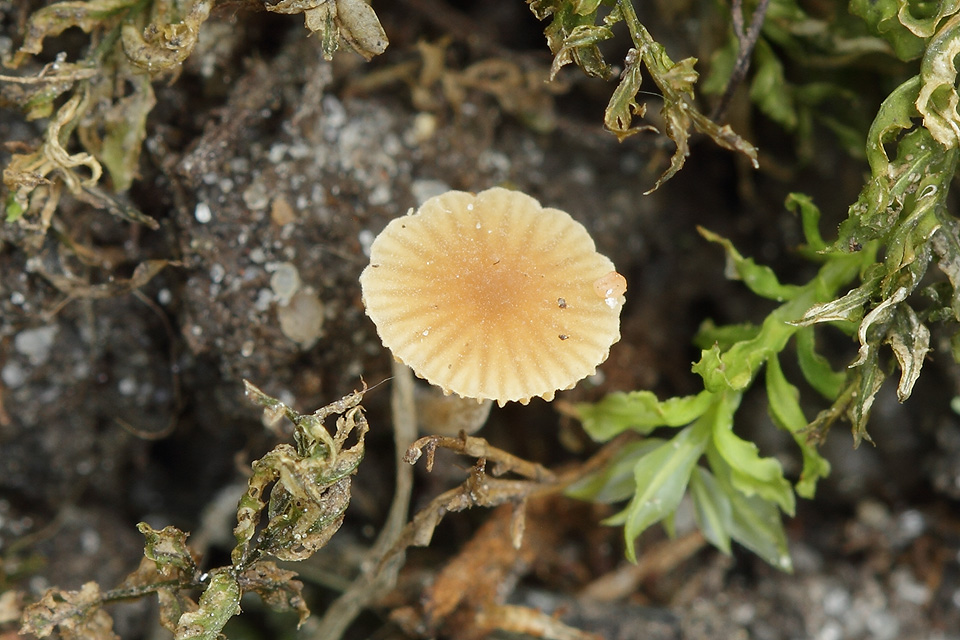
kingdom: Fungi
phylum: Basidiomycota
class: Agaricomycetes
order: Agaricales
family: Bolbitiaceae
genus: Conocybe
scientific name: Conocybe mairei
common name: spinkel dansehat
